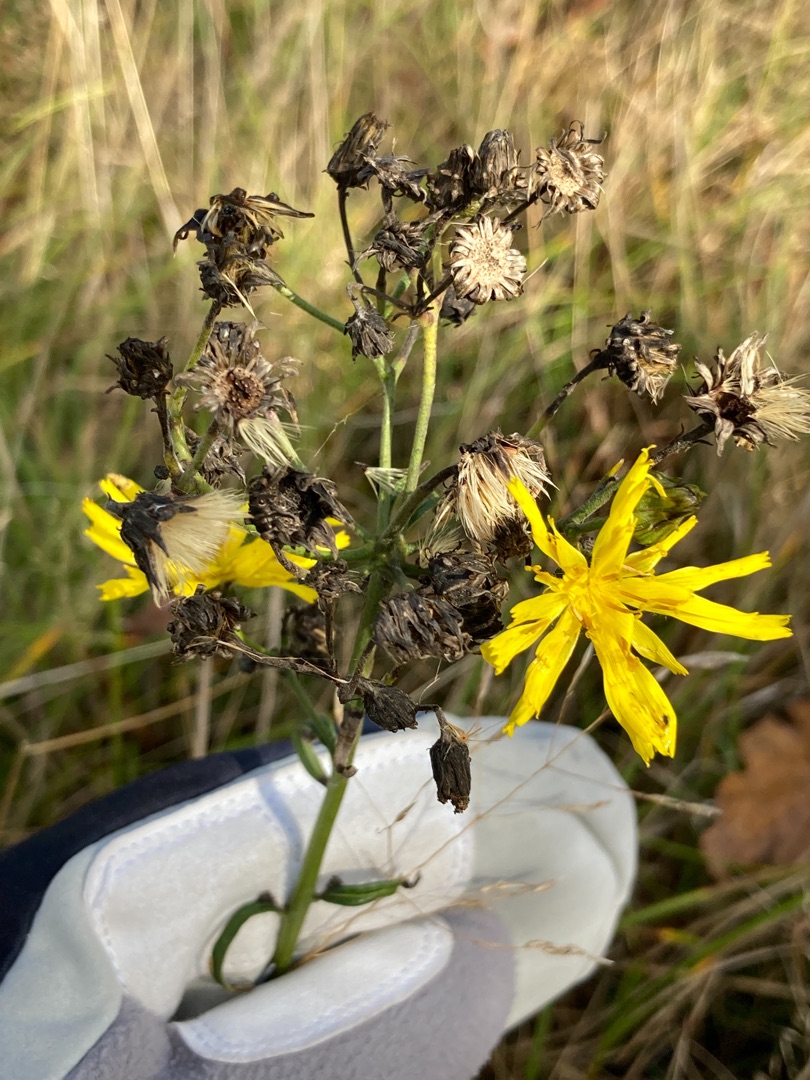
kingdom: Plantae
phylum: Tracheophyta
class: Magnoliopsida
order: Asterales
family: Asteraceae
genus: Hieracium
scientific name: Hieracium umbellatum
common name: Smalbladet høgeurt
